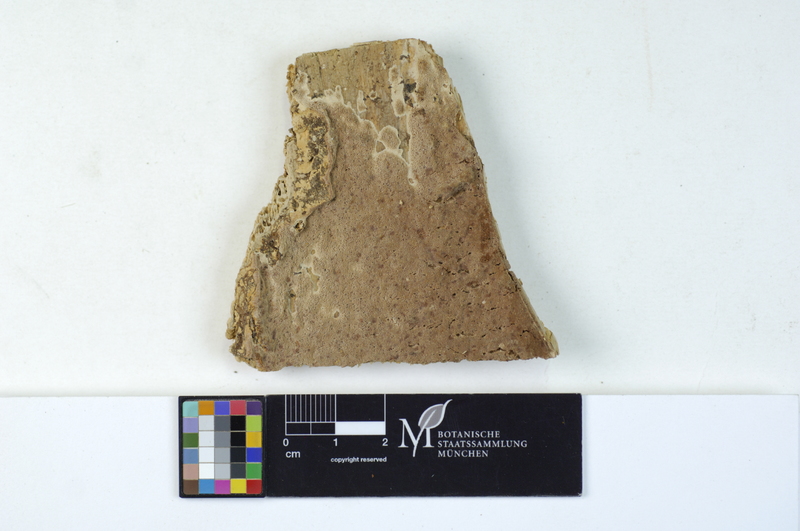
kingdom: Plantae
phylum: Tracheophyta
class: Pinopsida
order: Pinales
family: Pinaceae
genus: Picea
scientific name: Picea
